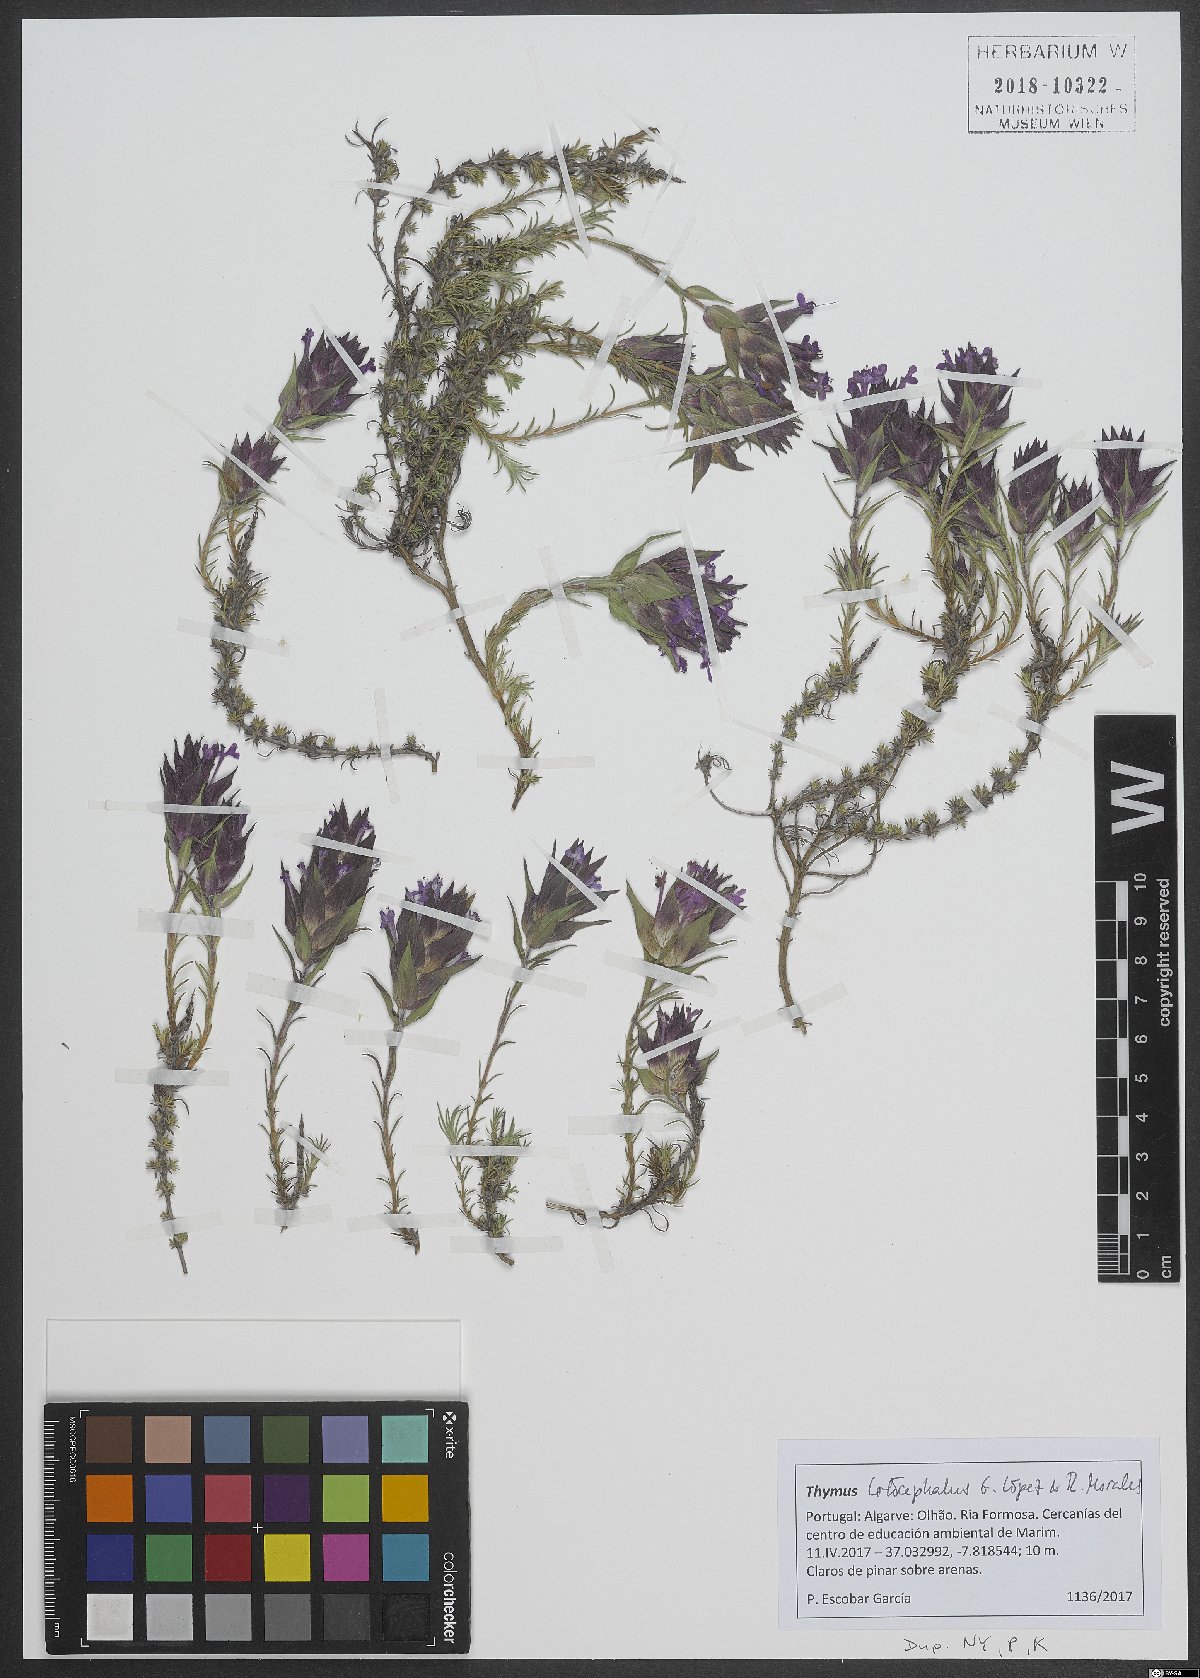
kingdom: Plantae
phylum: Tracheophyta
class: Magnoliopsida
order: Lamiales
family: Lamiaceae
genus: Thymus
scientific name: Thymus lotocephalus
